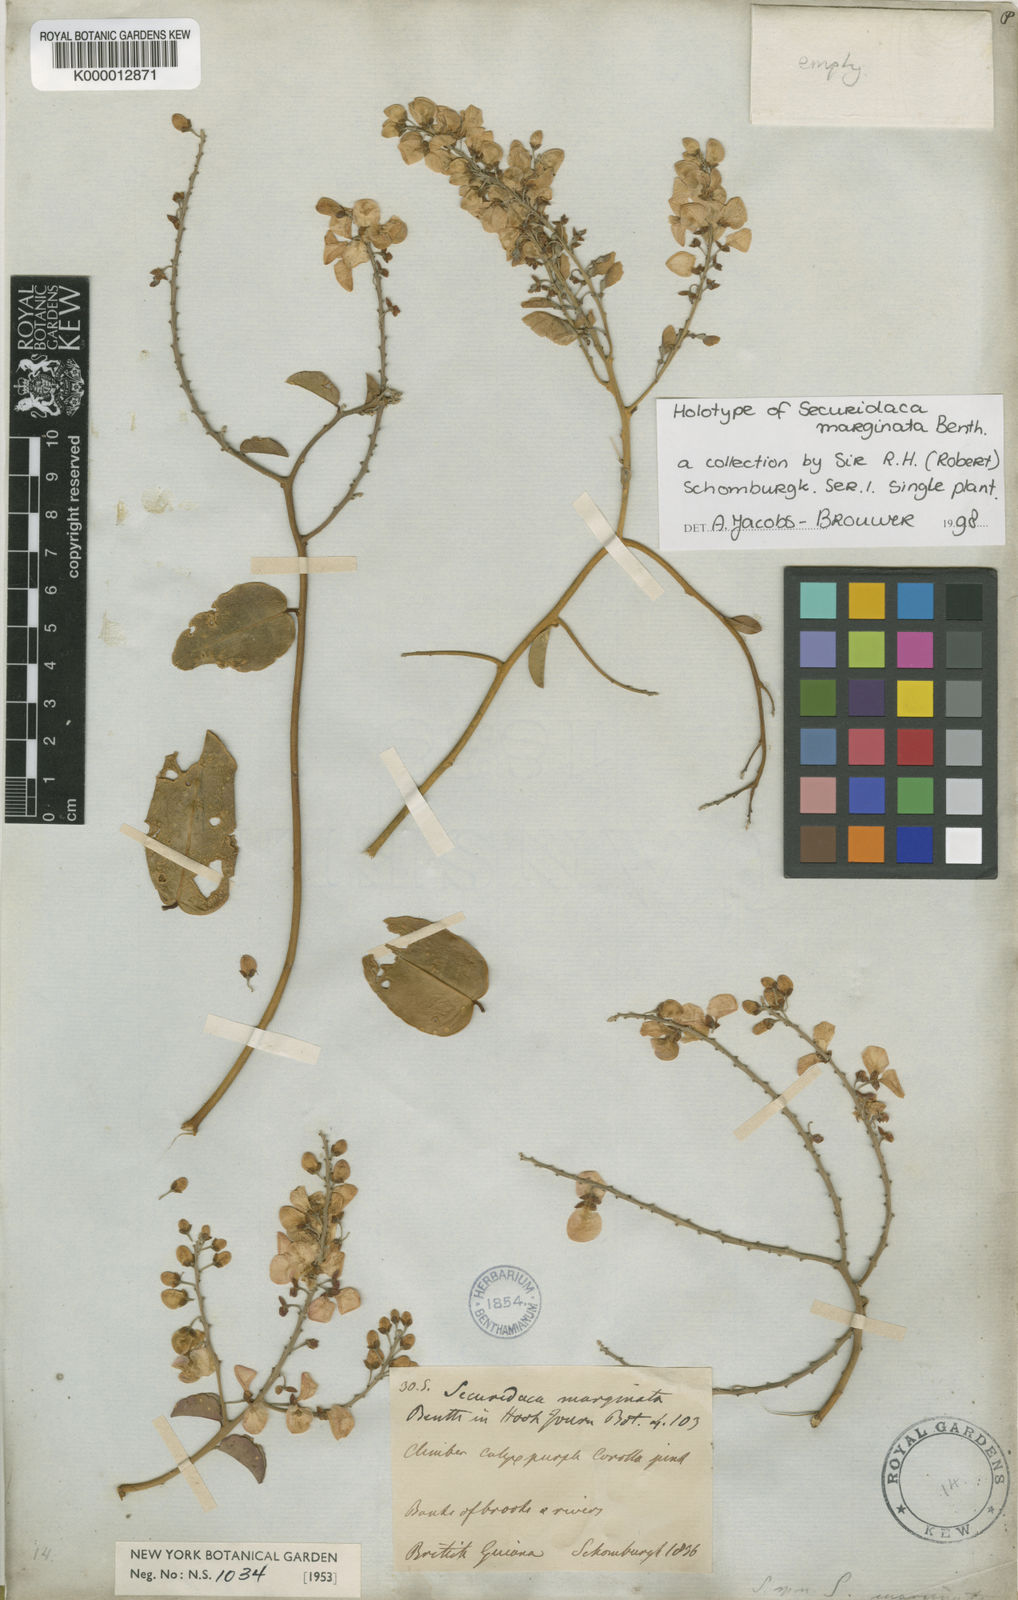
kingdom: Plantae
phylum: Tracheophyta
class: Magnoliopsida
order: Fabales
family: Polygalaceae
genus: Securidaca
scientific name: Securidaca marginata
